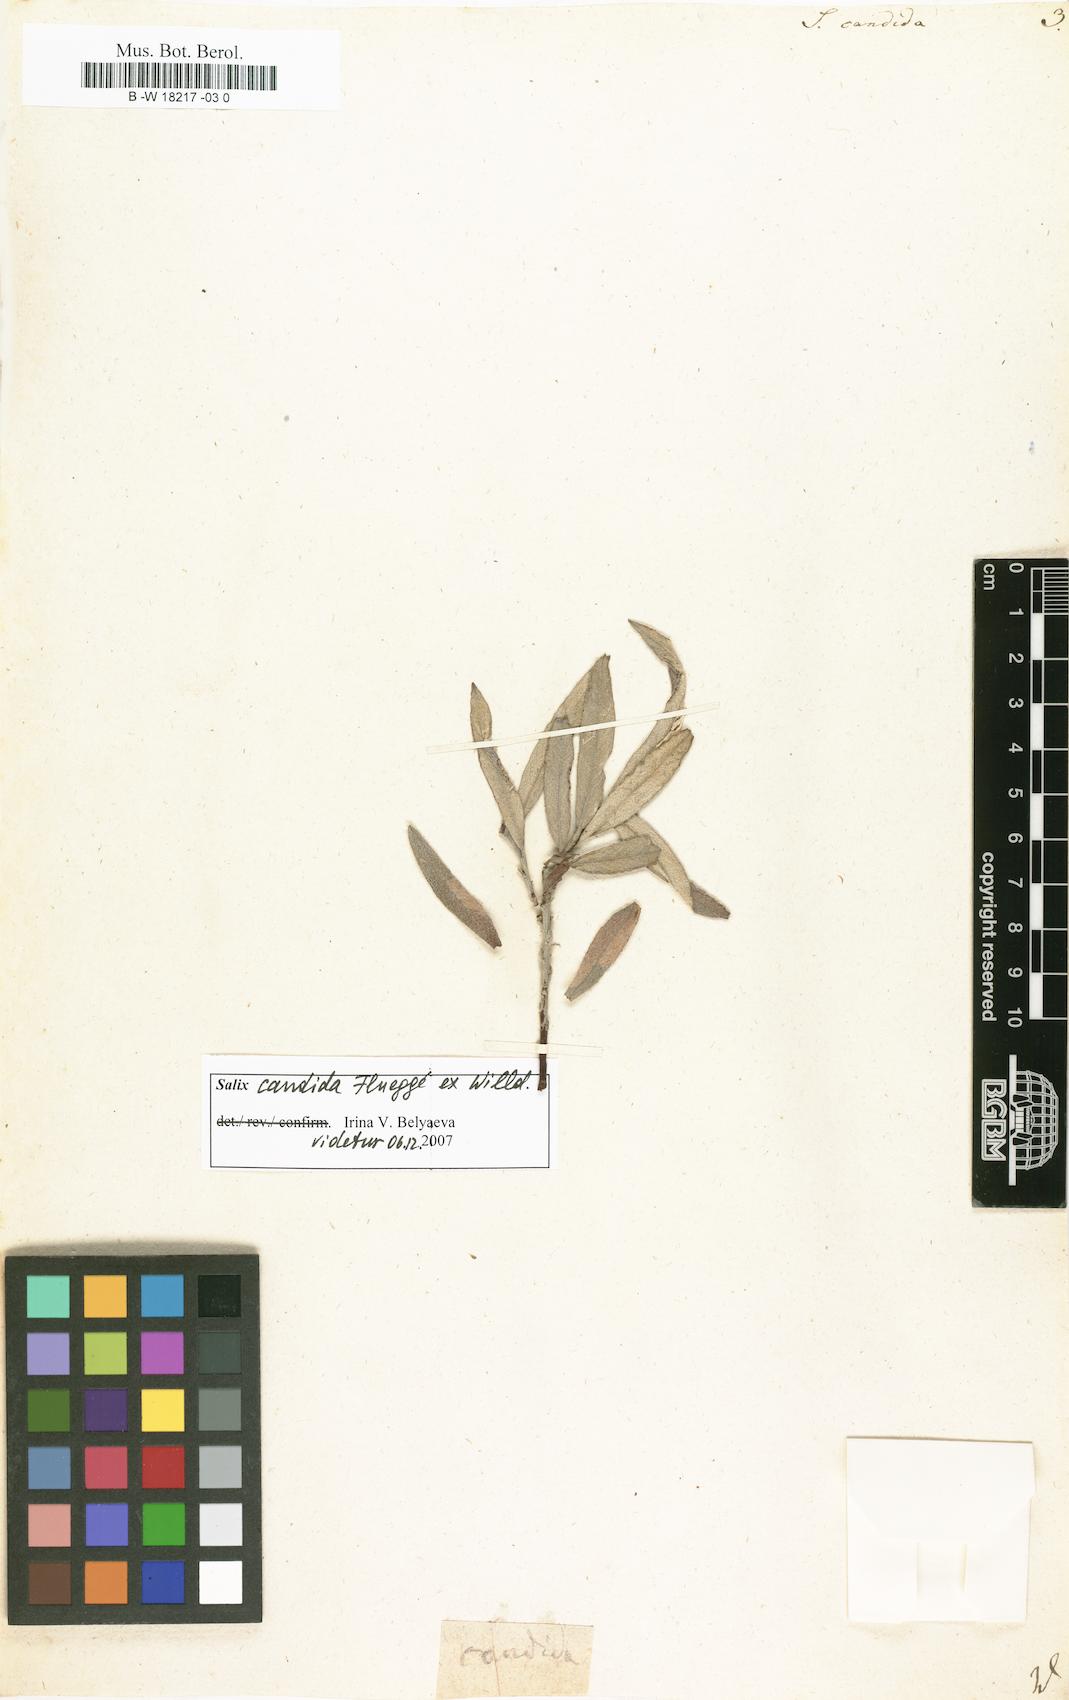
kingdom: Plantae
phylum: Tracheophyta
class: Magnoliopsida
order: Malpighiales
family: Salicaceae
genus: Salix
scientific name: Salix candida
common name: Hoary willow
